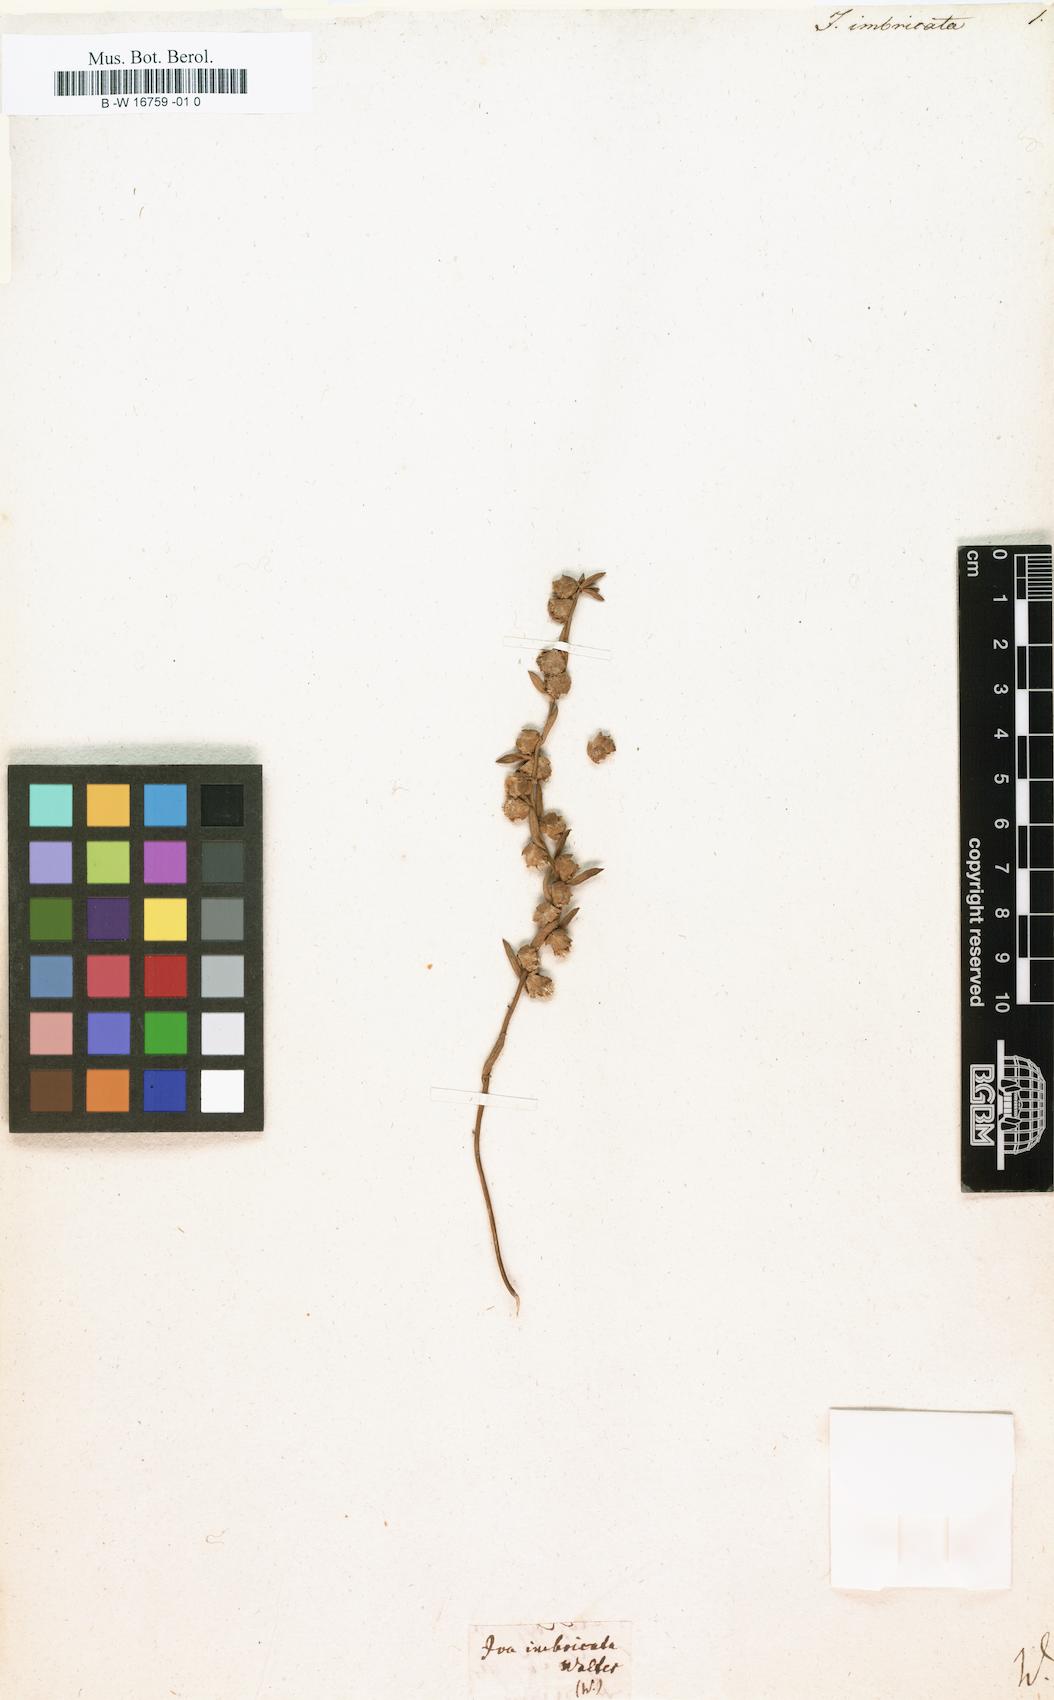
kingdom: Plantae
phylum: Tracheophyta
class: Magnoliopsida
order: Asterales
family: Asteraceae
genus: Iva
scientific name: Iva imbricata
